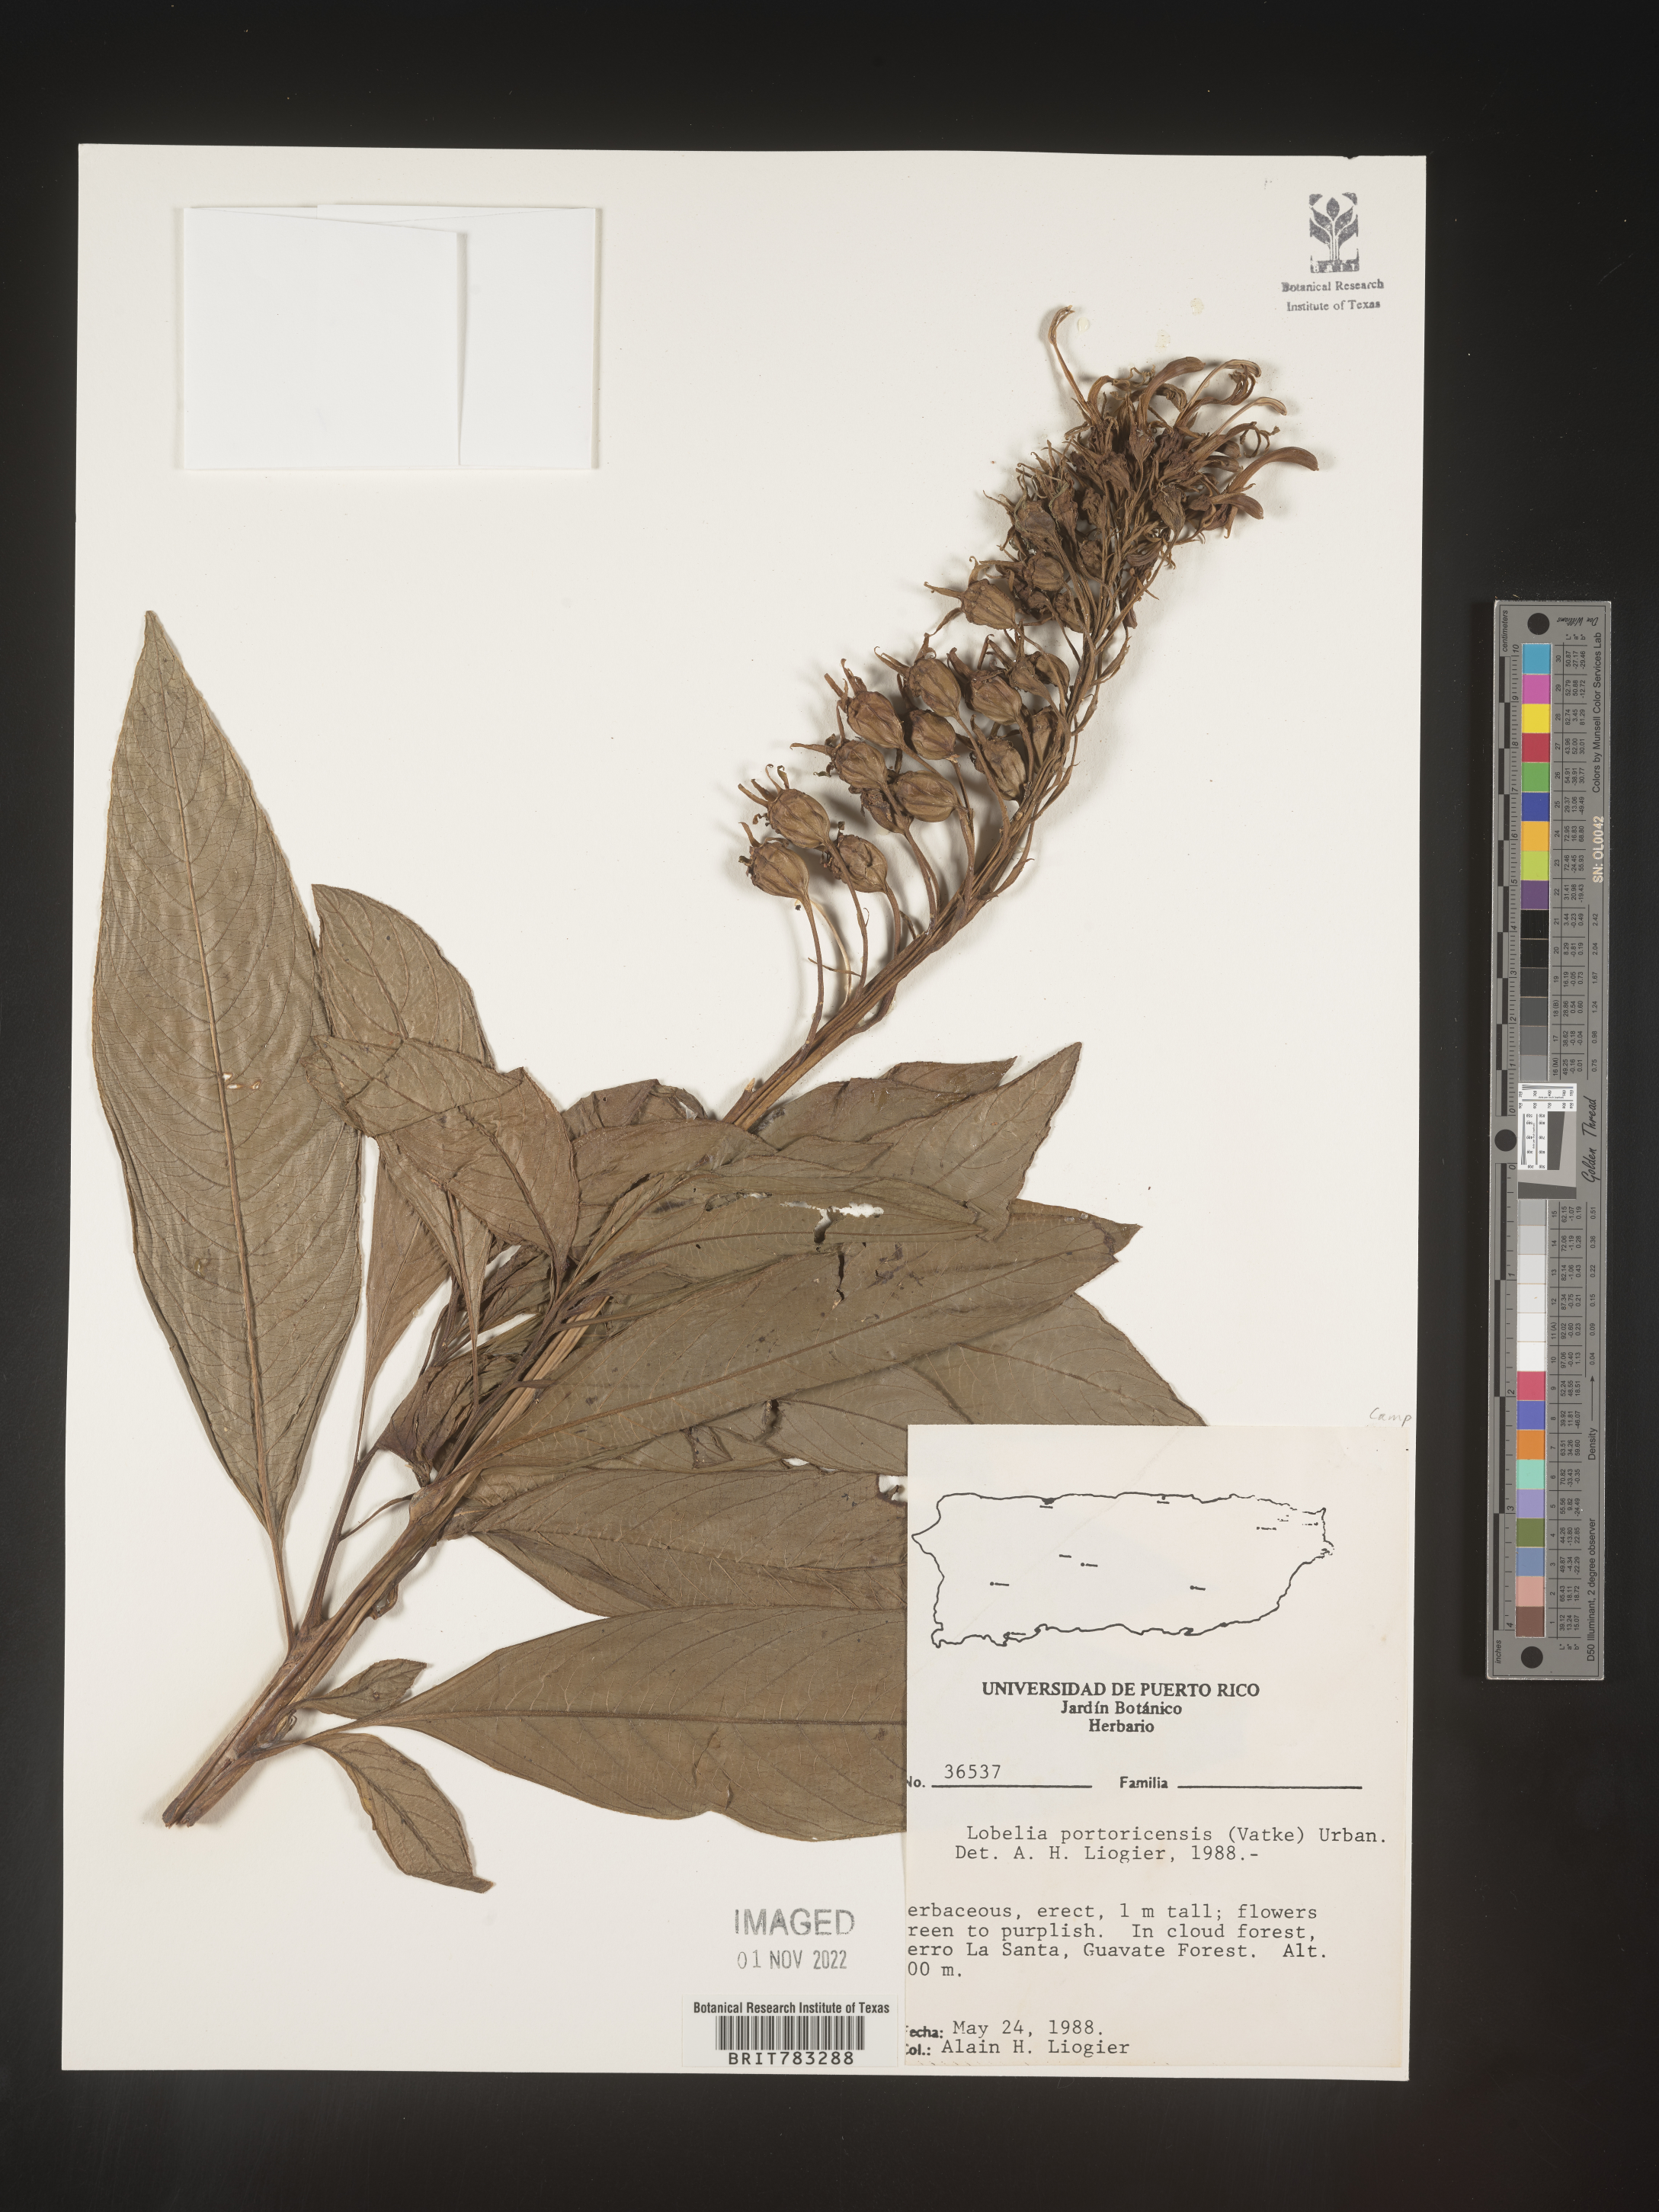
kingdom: Plantae
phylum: Tracheophyta
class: Magnoliopsida
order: Asterales
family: Campanulaceae
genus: Lobelia
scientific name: Lobelia
